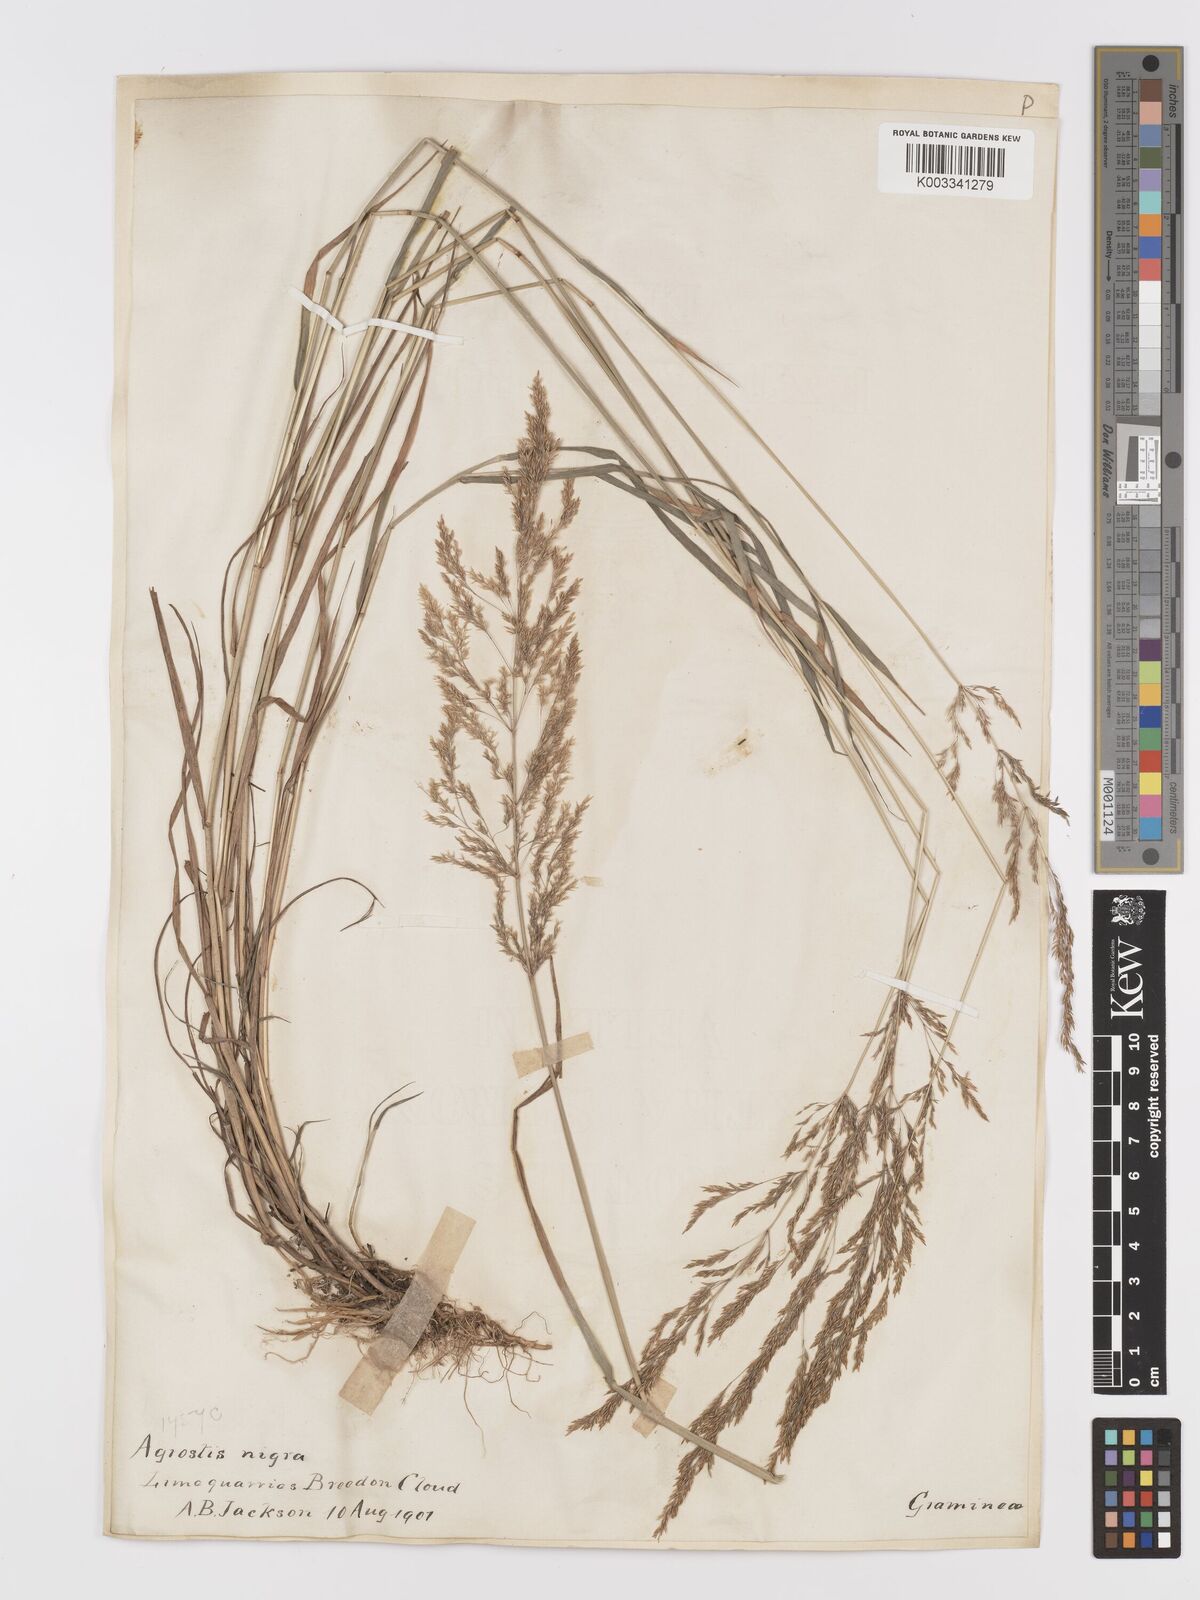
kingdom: Plantae
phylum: Tracheophyta
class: Liliopsida
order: Poales
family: Poaceae
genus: Agrostis
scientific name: Agrostis gigantea
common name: Black bent
